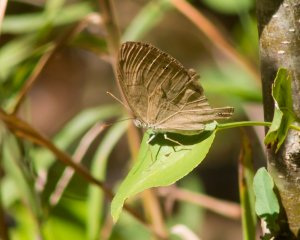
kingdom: Animalia
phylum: Arthropoda
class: Insecta
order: Lepidoptera
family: Nymphalidae
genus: Lethe
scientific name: Lethe eurydice
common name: Appalachian Eyed Brown
